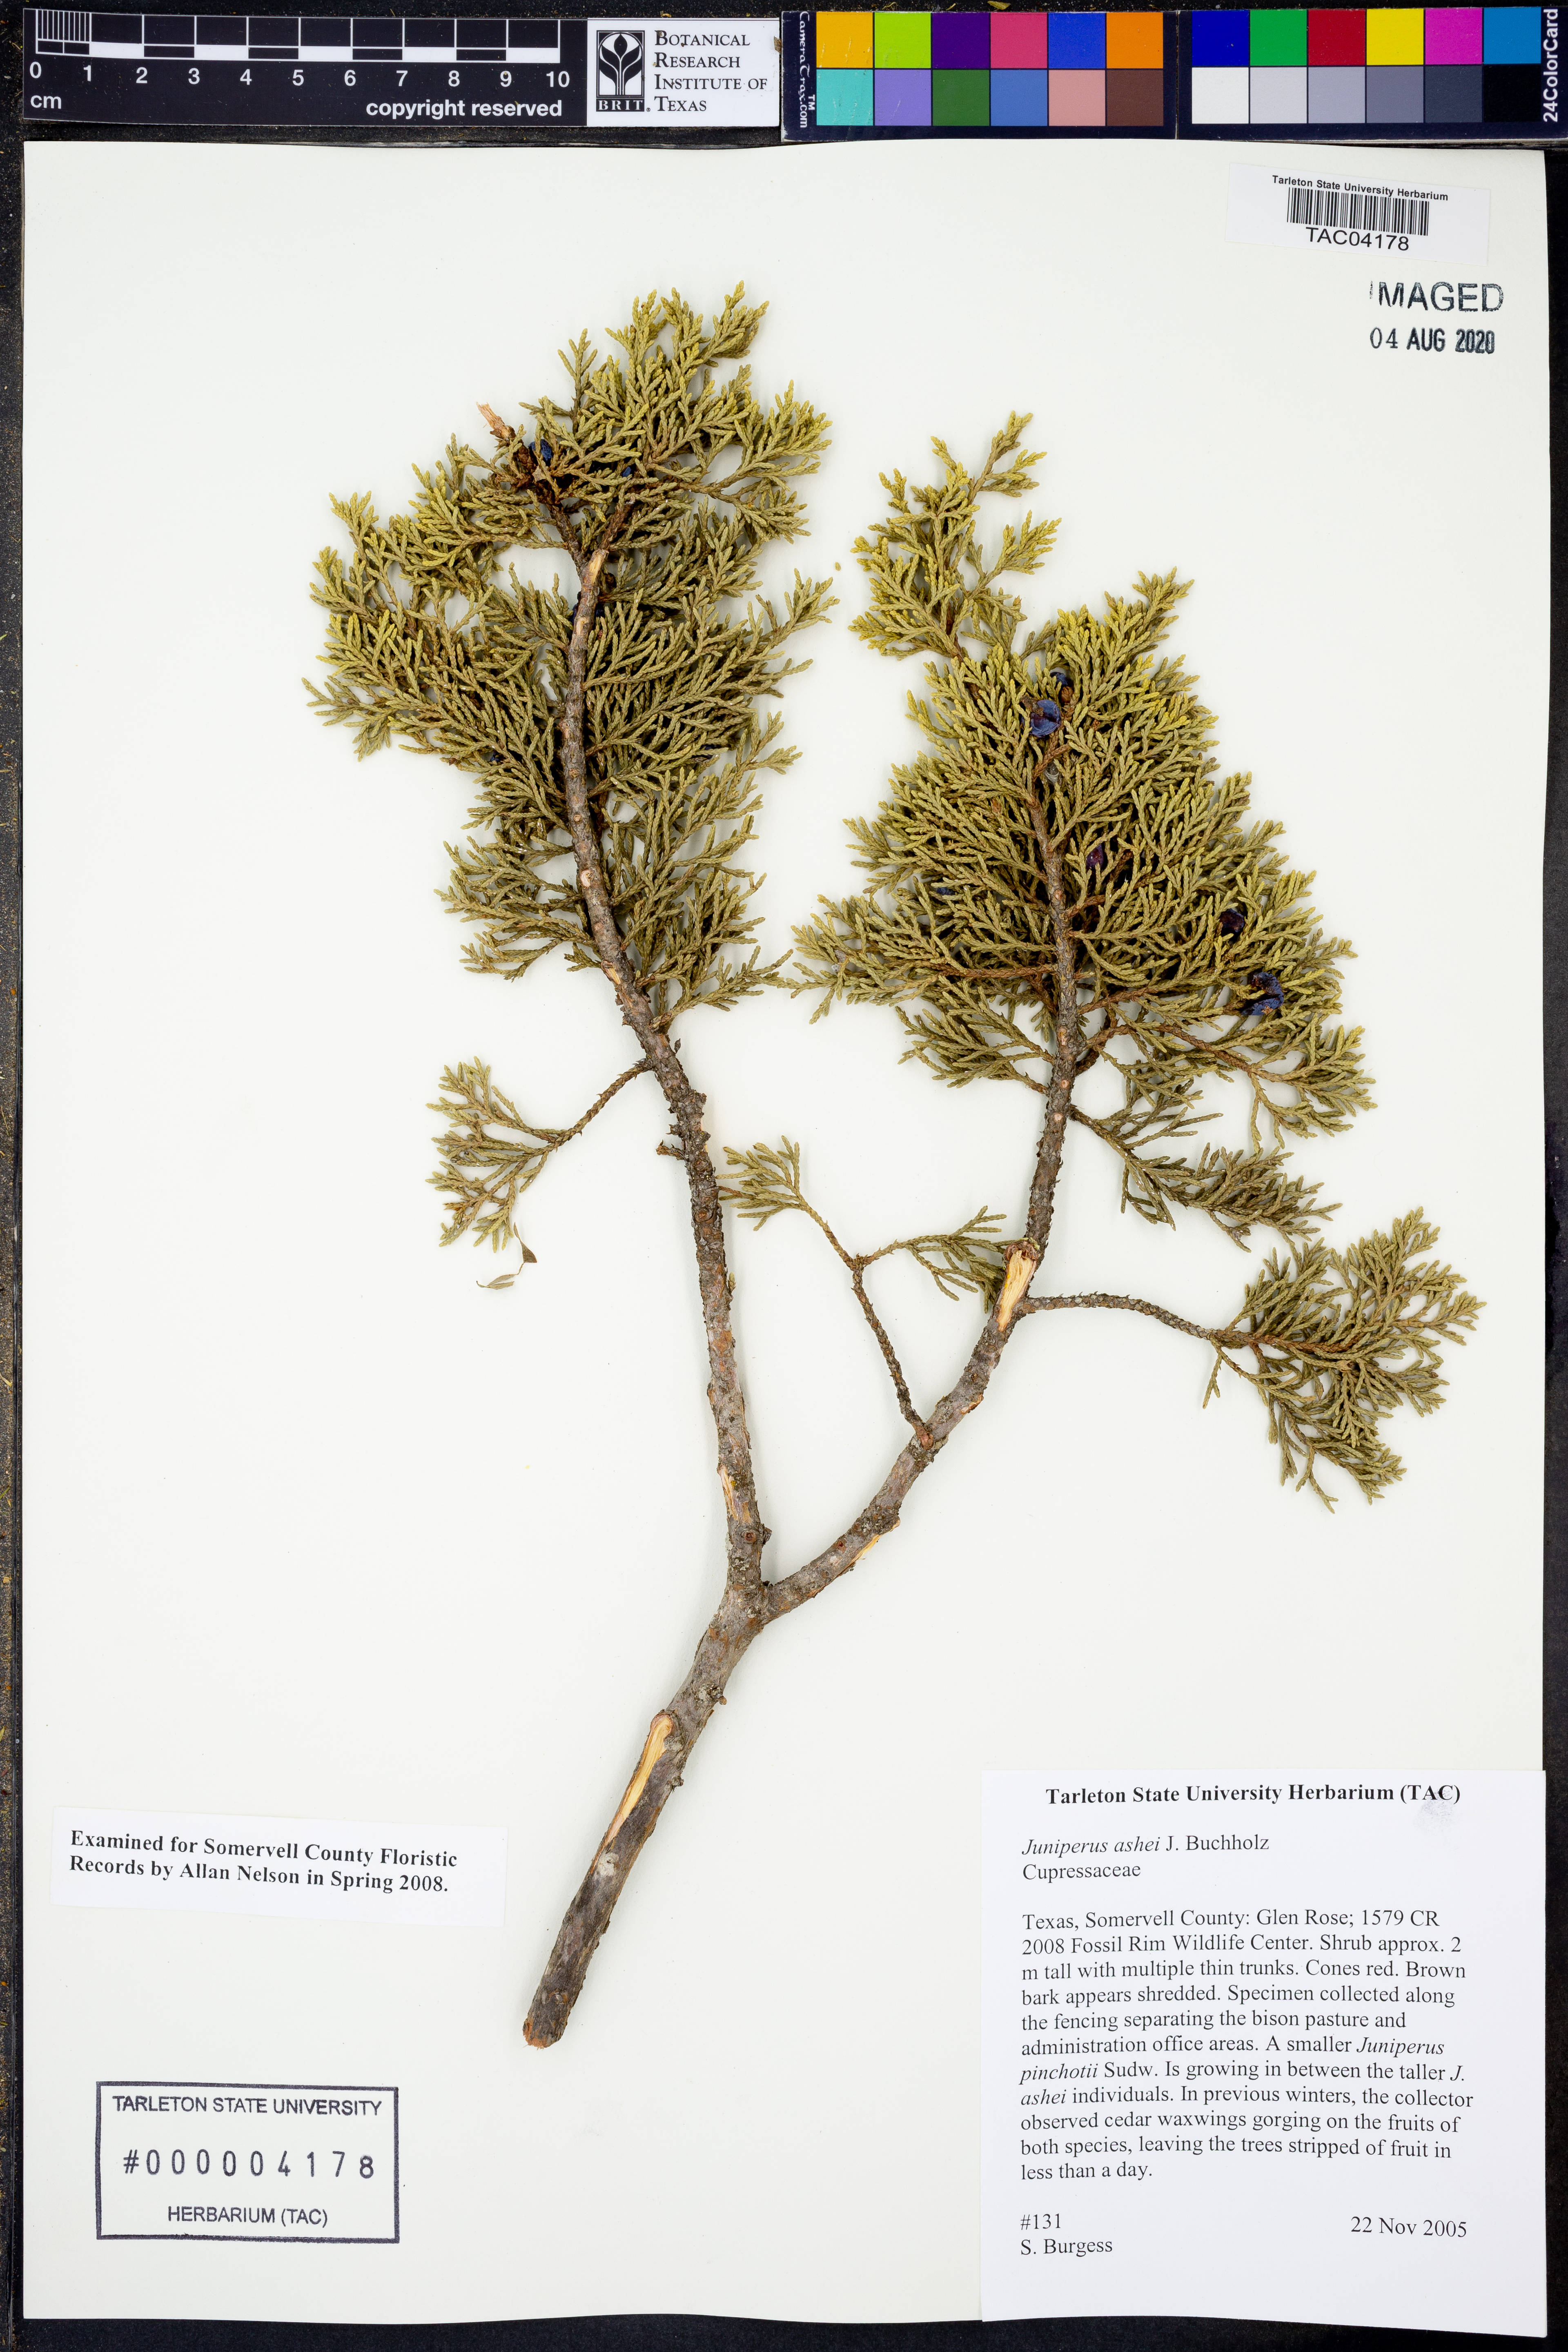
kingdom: Plantae
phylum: Tracheophyta
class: Pinopsida
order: Pinales
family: Cupressaceae
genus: Juniperus
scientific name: Juniperus ashei
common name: Mexican juniper
